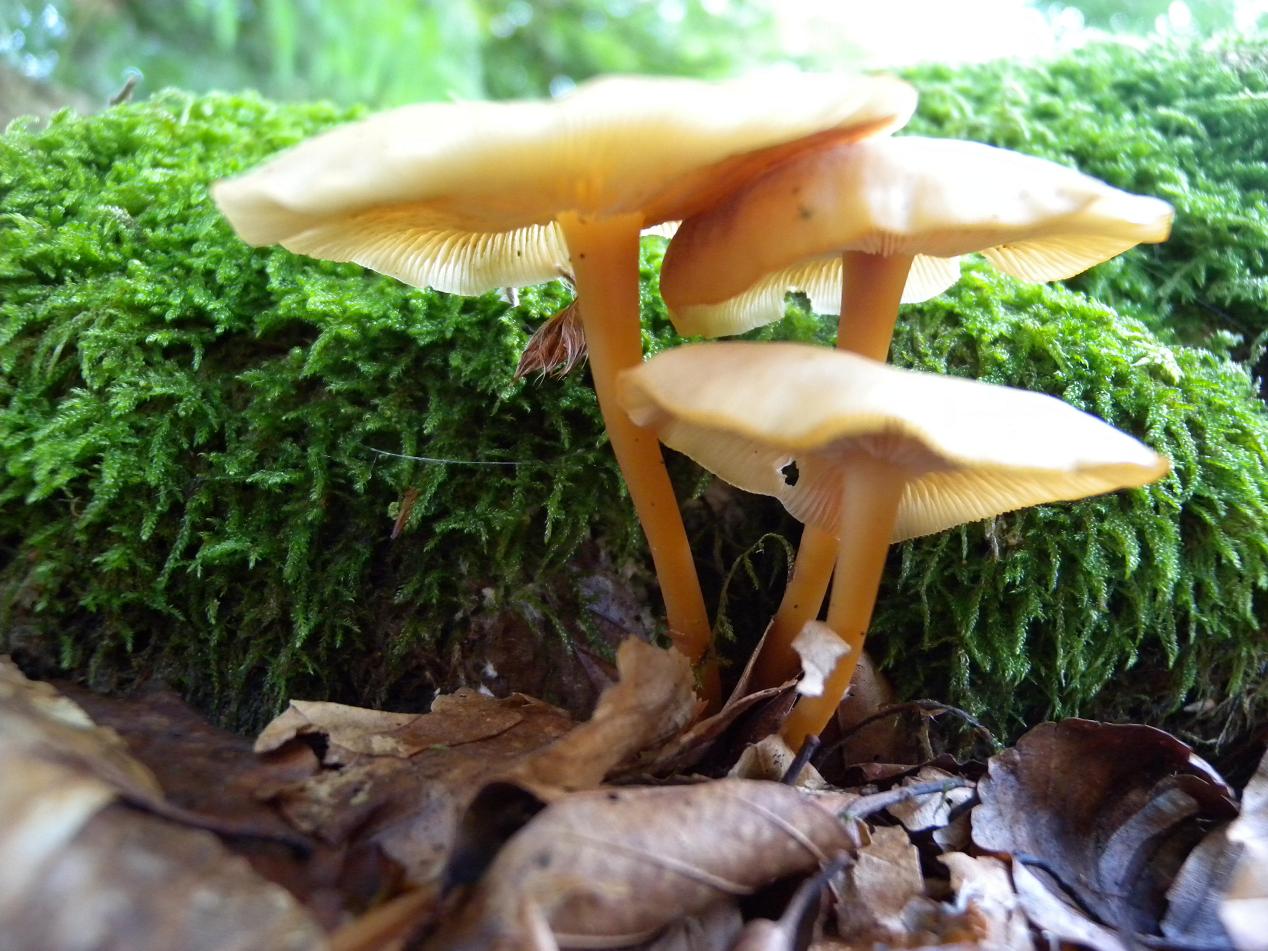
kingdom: Fungi
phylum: Basidiomycota
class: Agaricomycetes
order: Agaricales
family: Omphalotaceae
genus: Gymnopus
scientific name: Gymnopus dryophilus
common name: løv-fladhat
